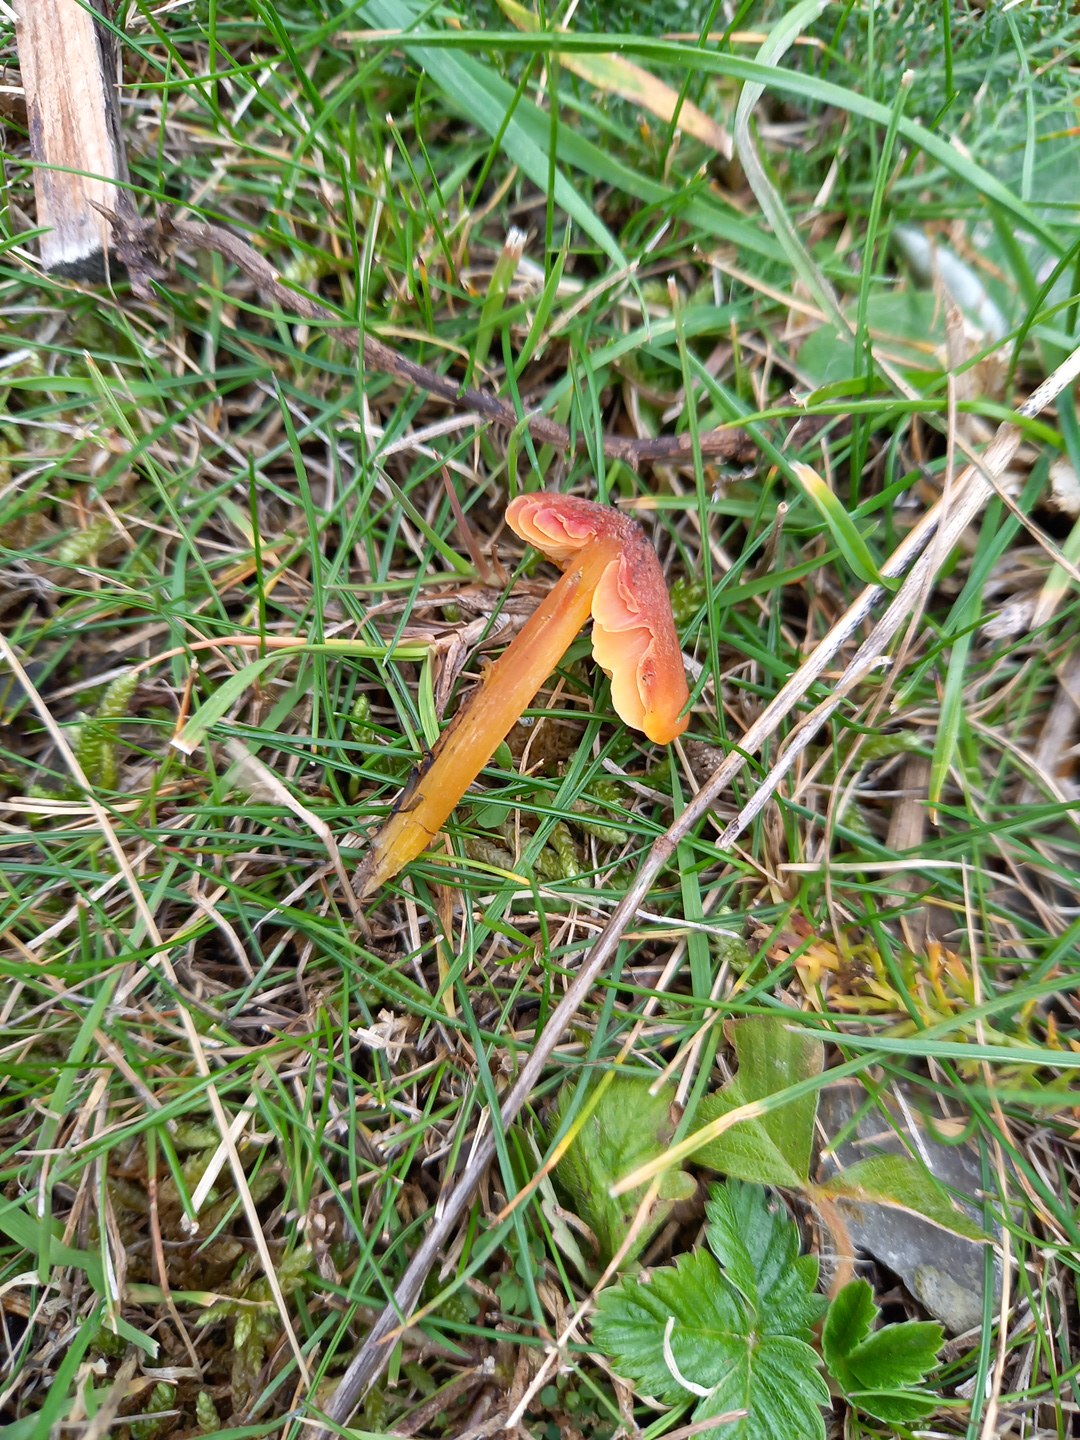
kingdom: Fungi
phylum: Basidiomycota
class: Agaricomycetes
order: Agaricales
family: Hygrophoraceae
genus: Hygrocybe
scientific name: Hygrocybe conica
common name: kegle-vokshat
